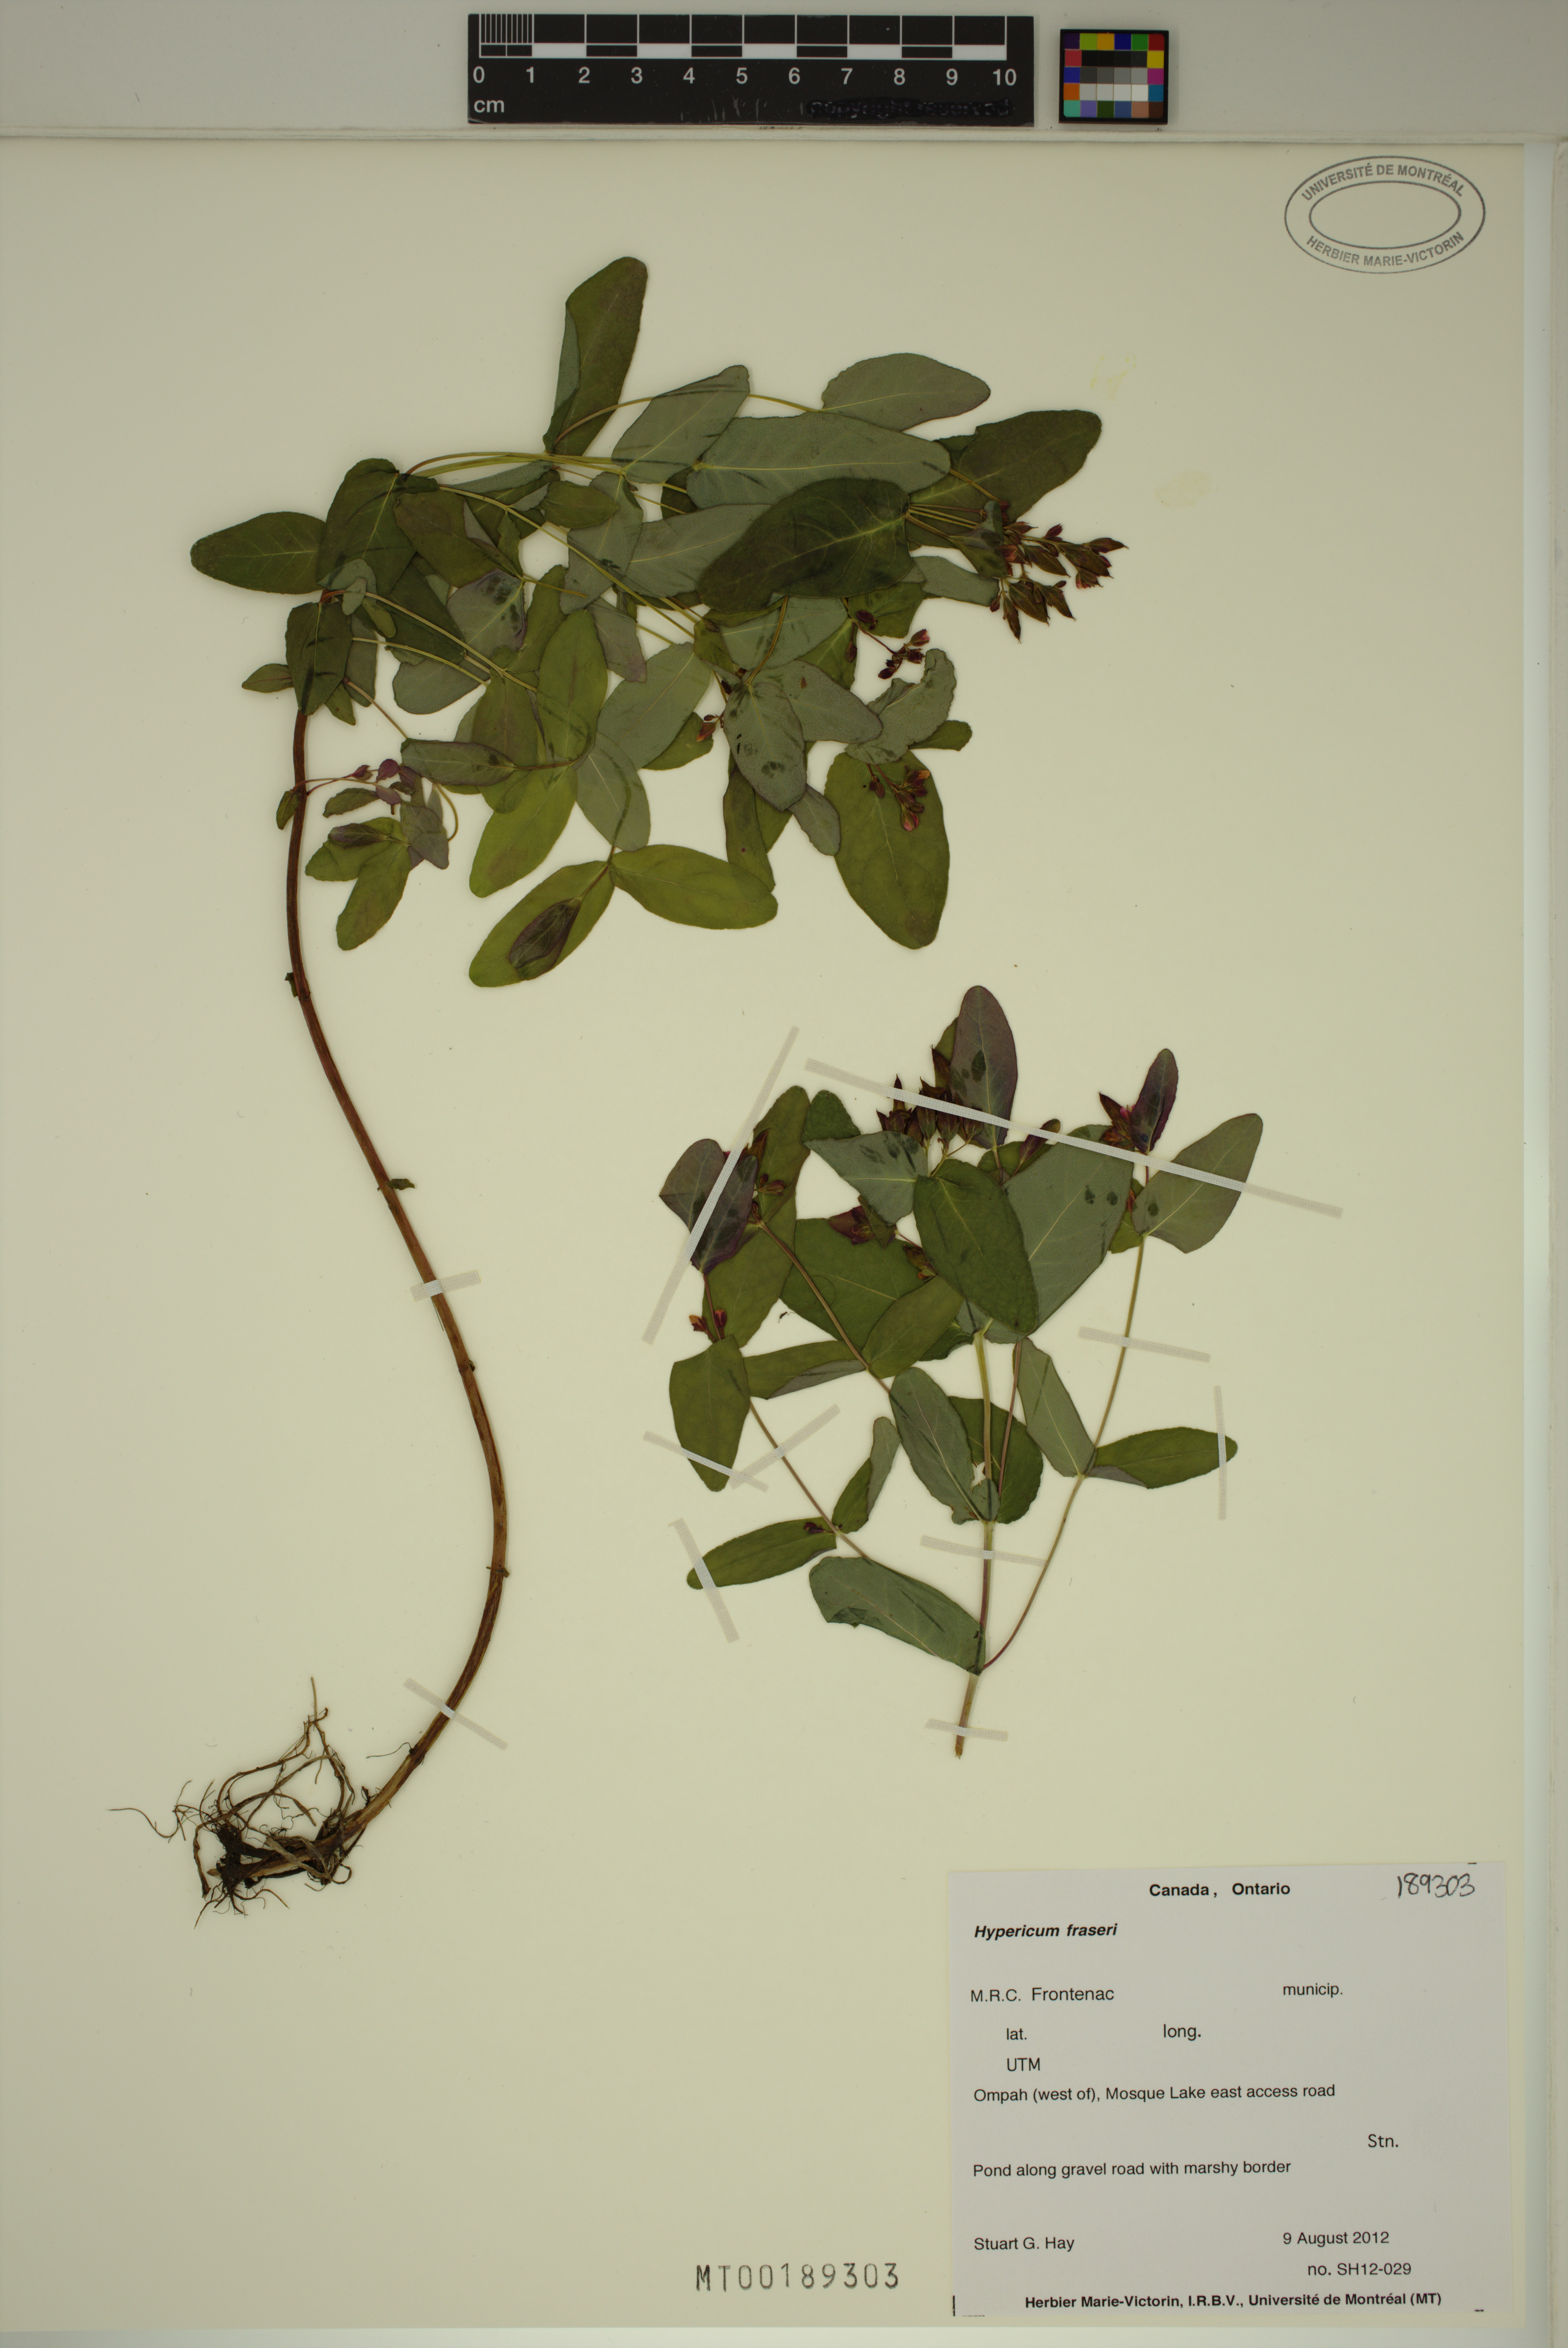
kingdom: Plantae
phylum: Tracheophyta
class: Magnoliopsida
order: Malpighiales
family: Hypericaceae
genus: Triadenum
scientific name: Triadenum fraseri
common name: Fraser's marsh st. johnswort
